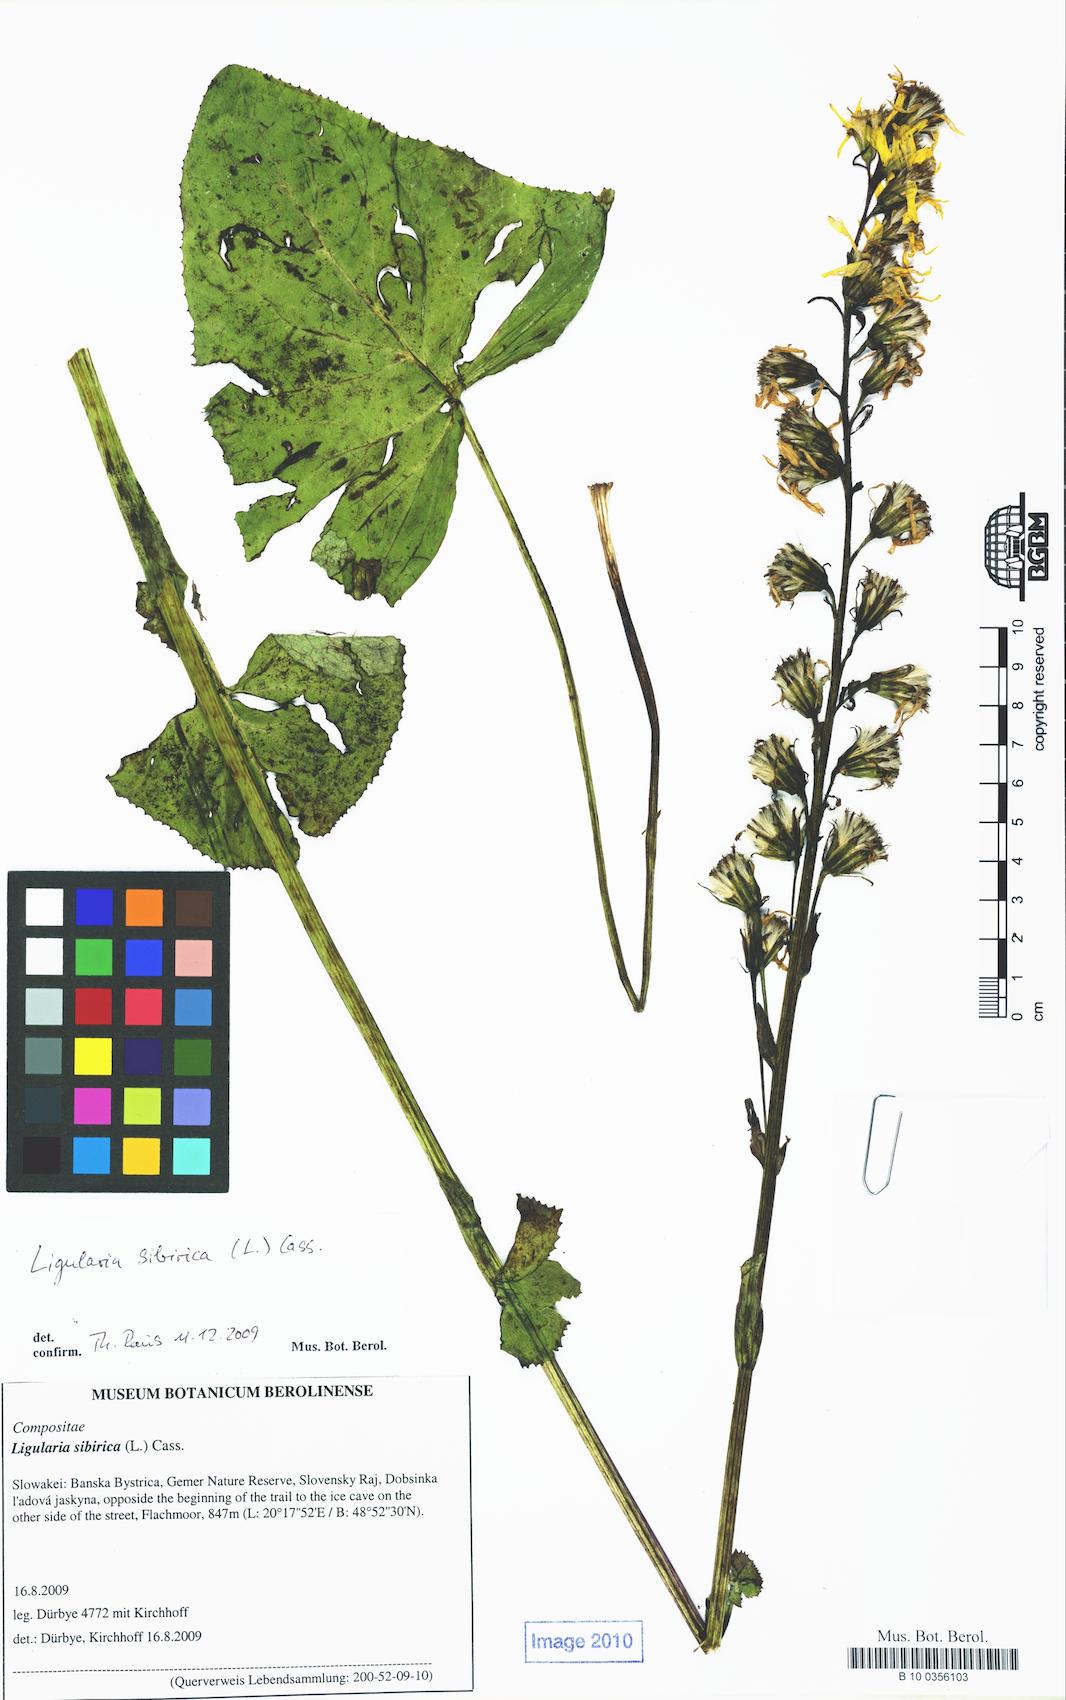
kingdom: Plantae
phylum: Tracheophyta
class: Magnoliopsida
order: Asterales
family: Asteraceae
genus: Ligularia
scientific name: Ligularia sibirica
